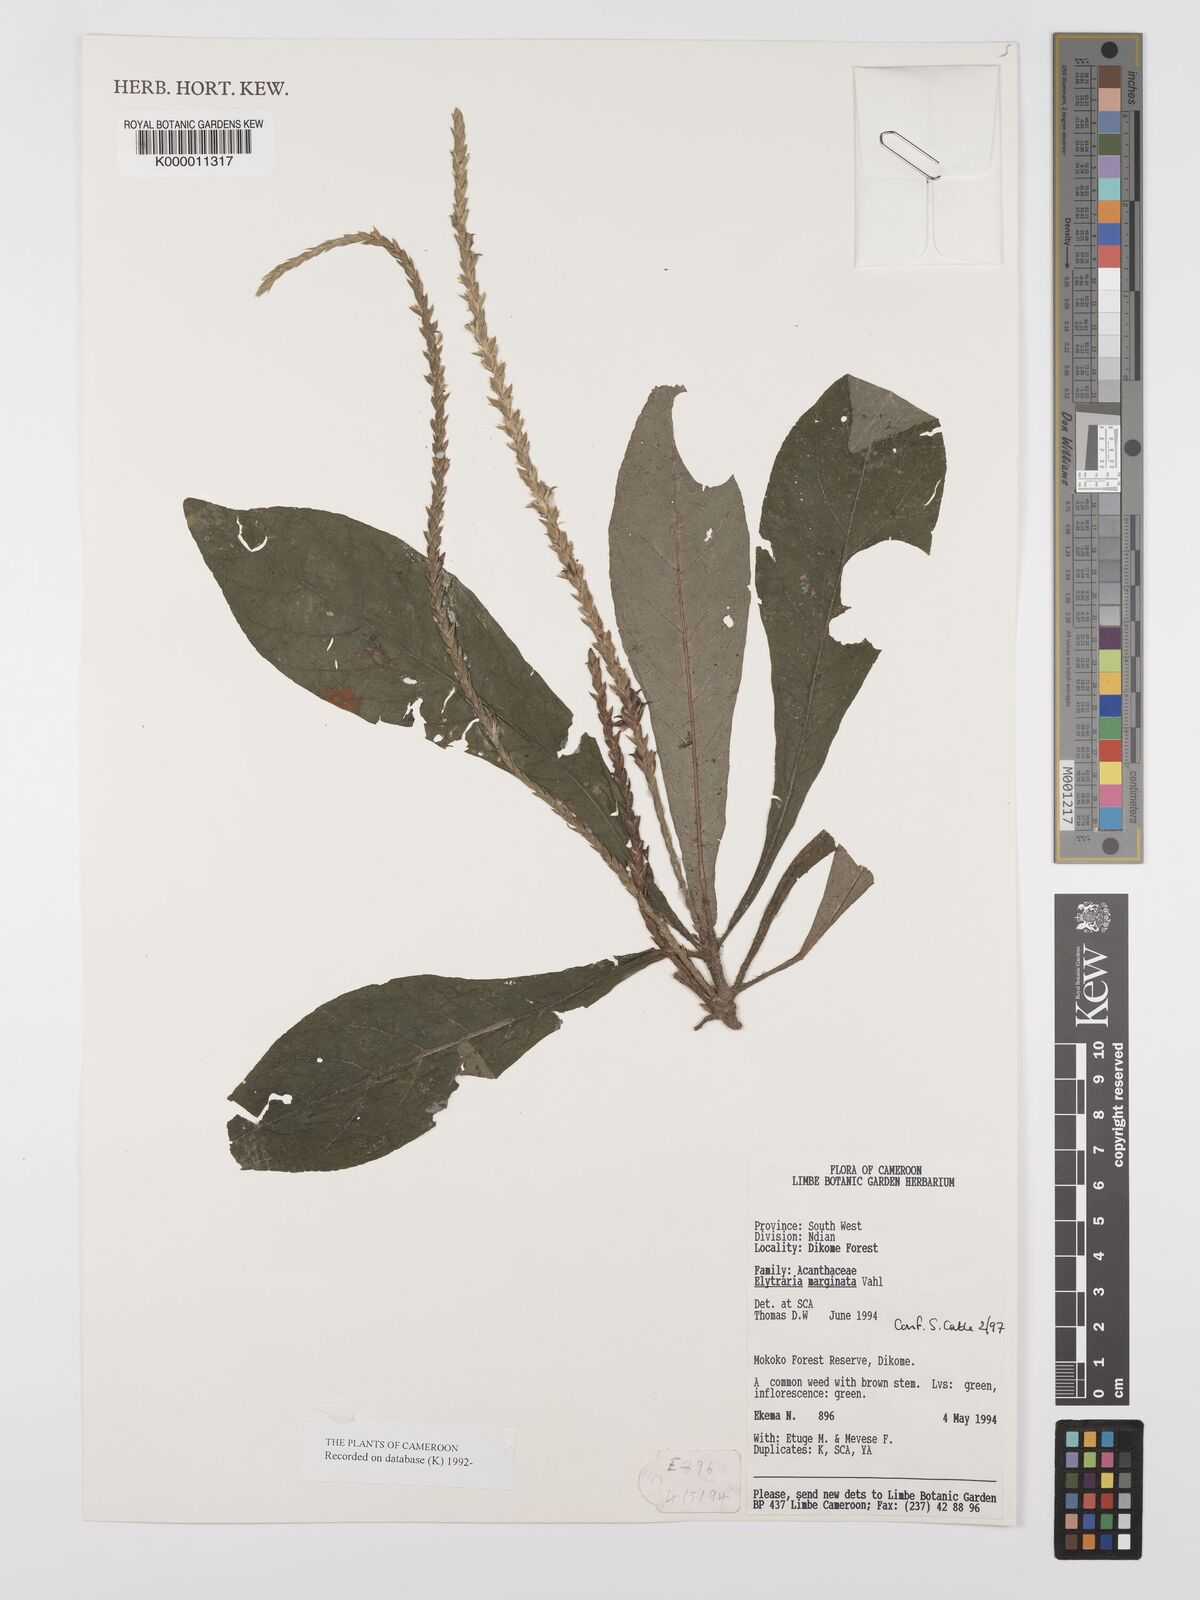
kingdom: Plantae
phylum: Tracheophyta
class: Magnoliopsida
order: Lamiales
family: Acanthaceae
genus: Elytraria
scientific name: Elytraria marginata
